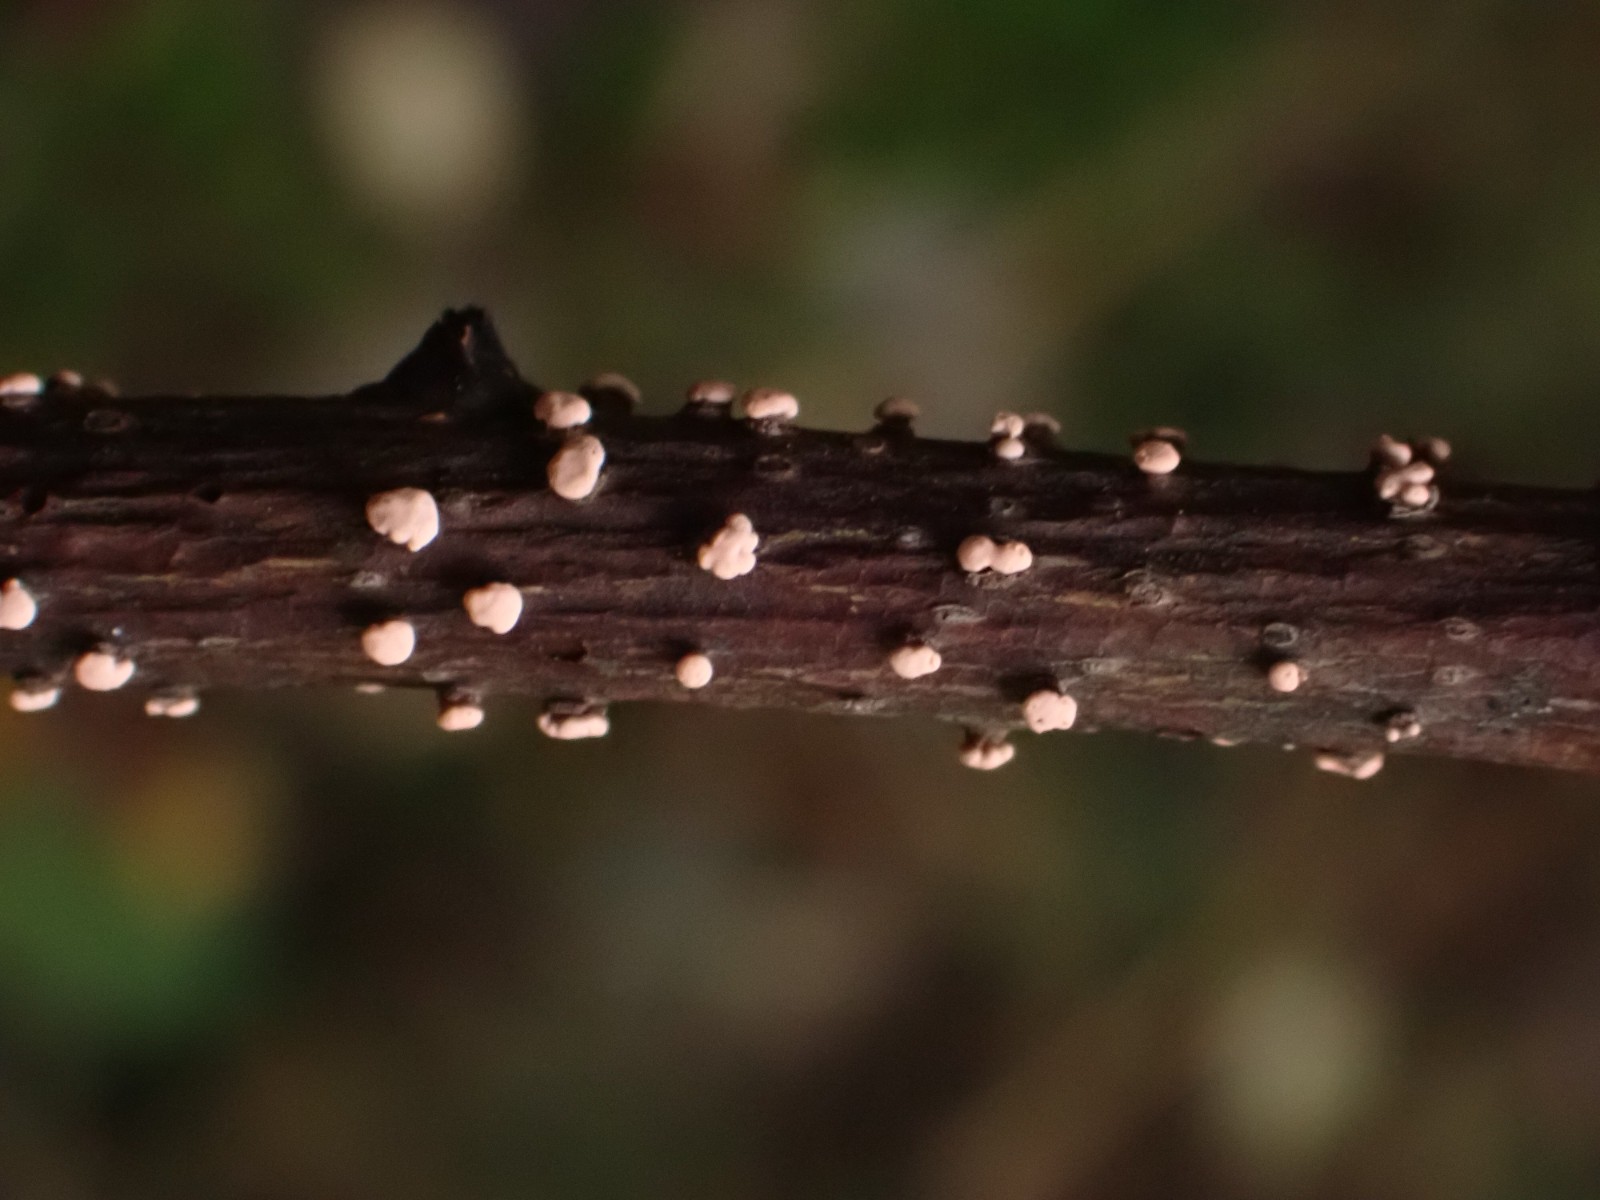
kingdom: Fungi
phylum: Ascomycota
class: Sordariomycetes
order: Hypocreales
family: Nectriaceae
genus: Nectria
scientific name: Nectria cinnabarina
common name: almindelig cinnobersvamp
